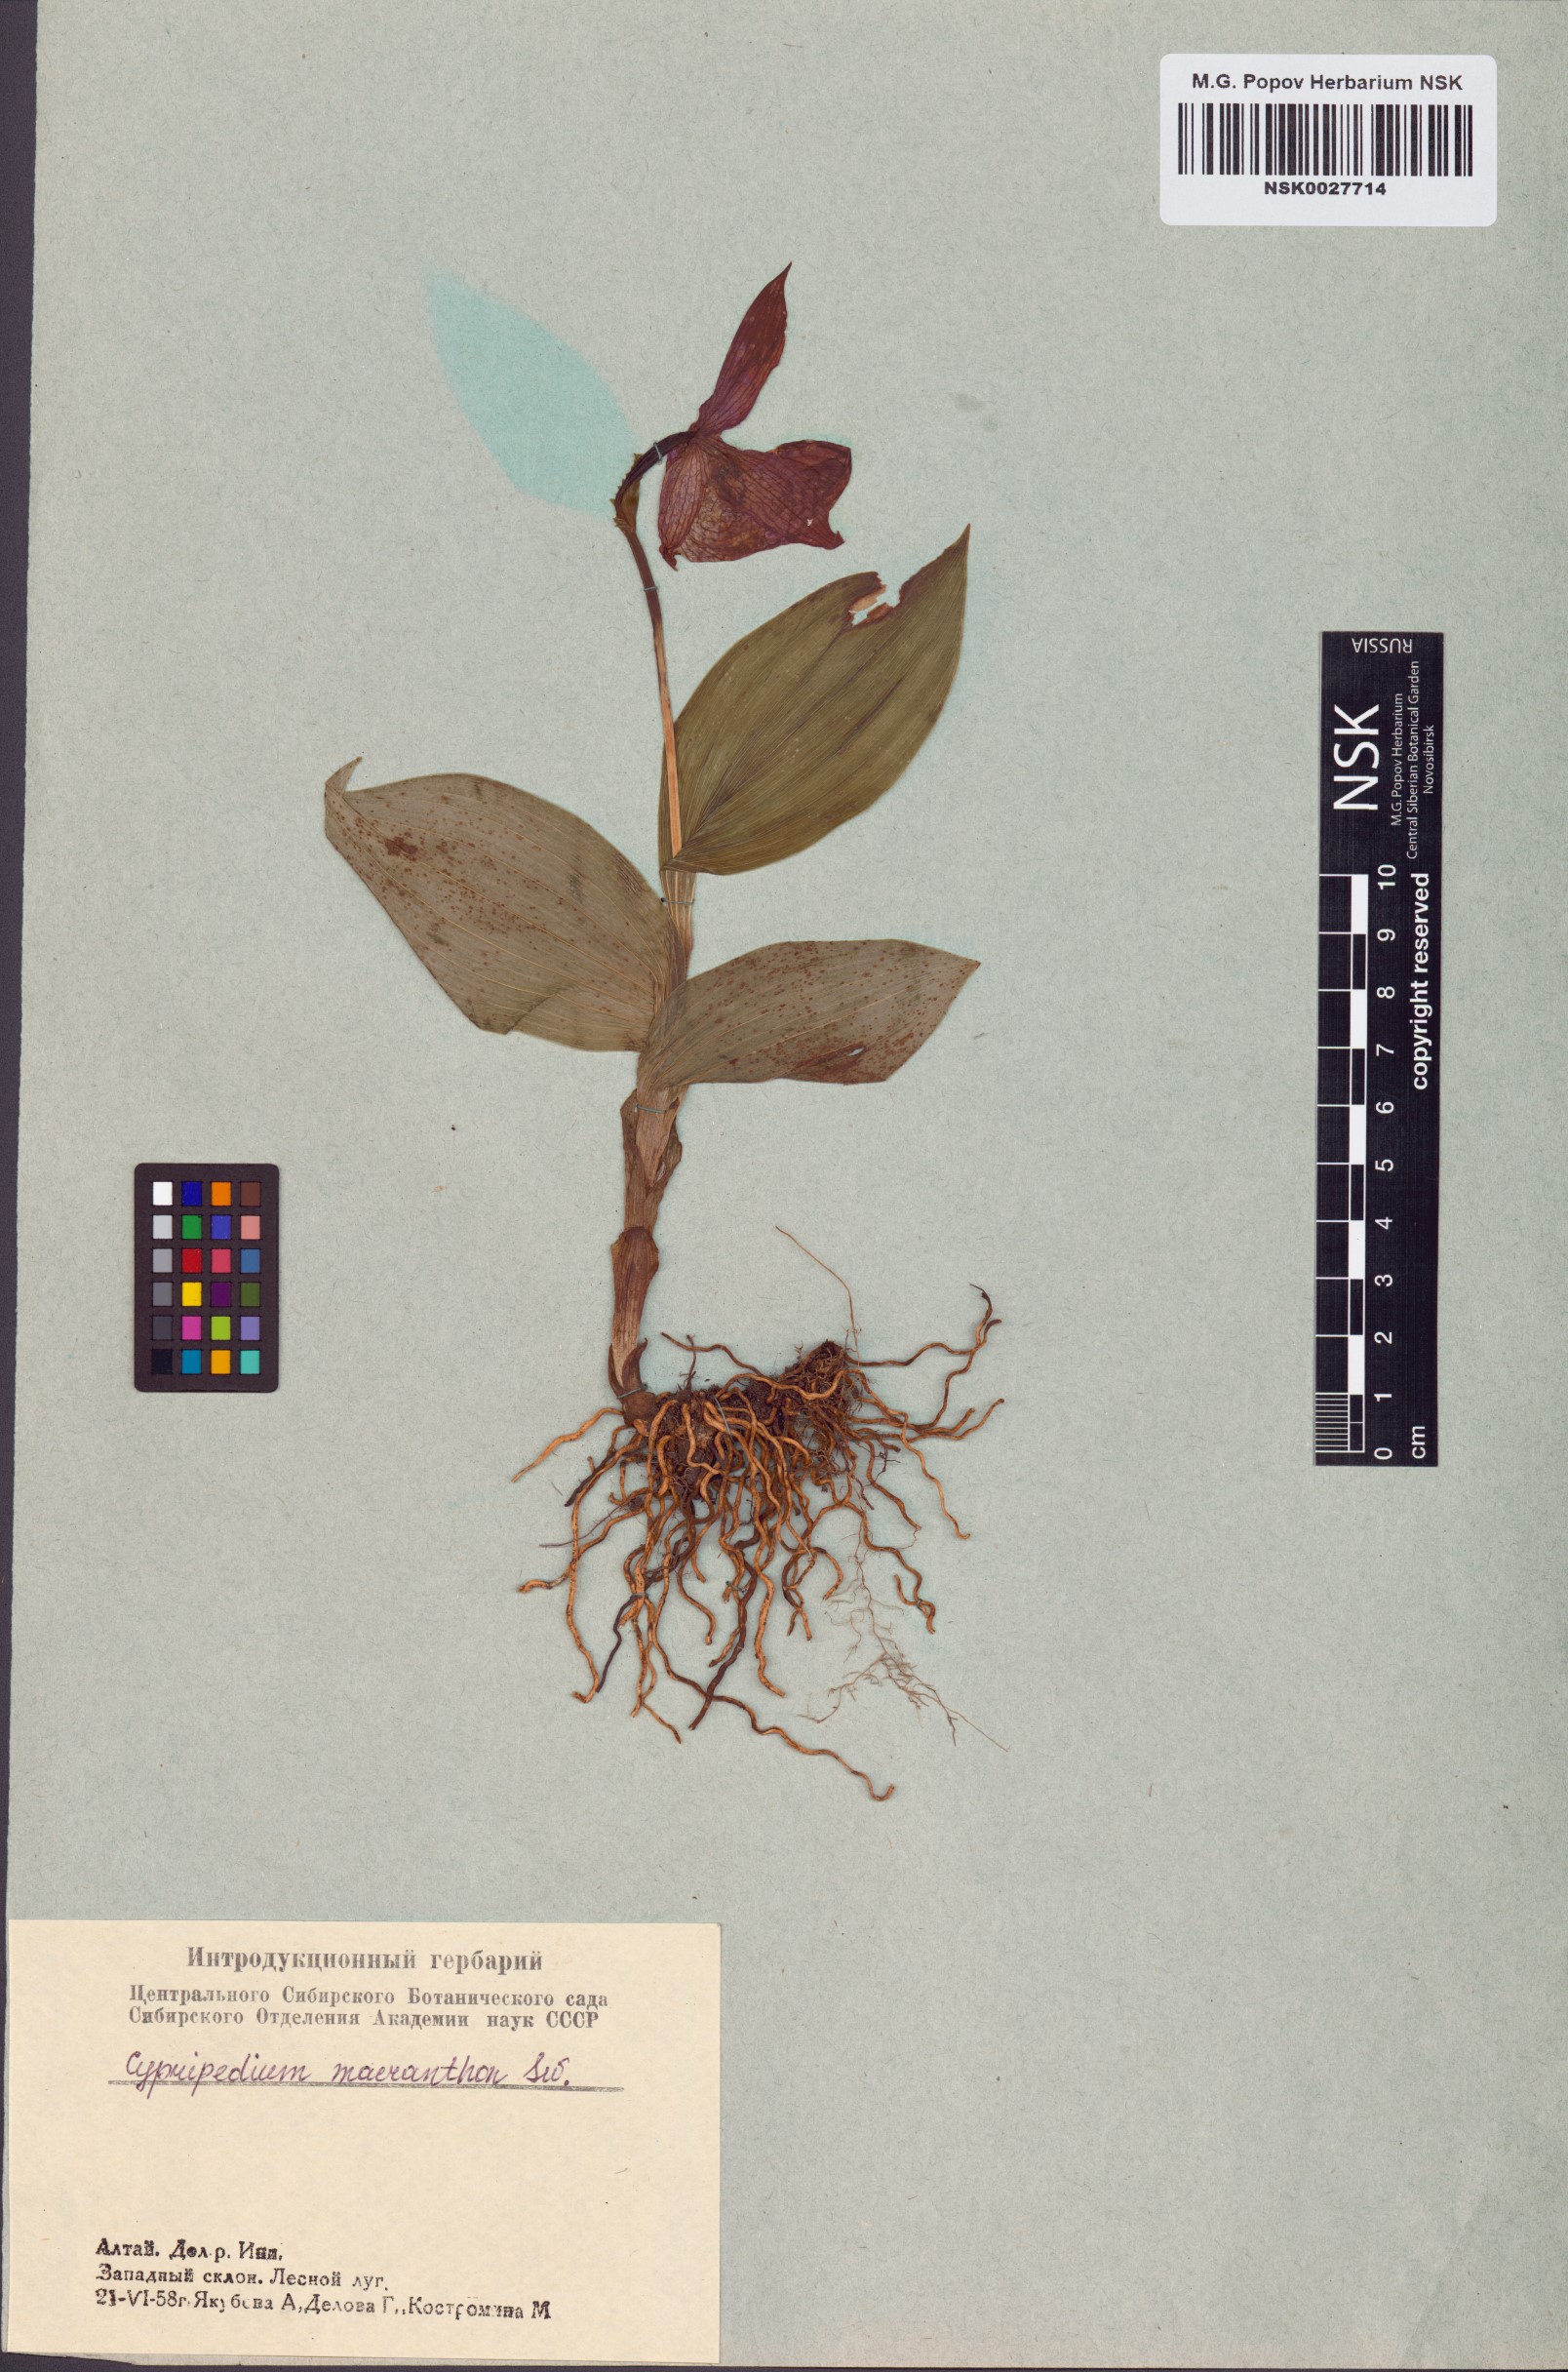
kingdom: Plantae
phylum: Tracheophyta
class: Liliopsida
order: Asparagales
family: Orchidaceae
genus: Cypripedium
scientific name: Cypripedium macranthos
